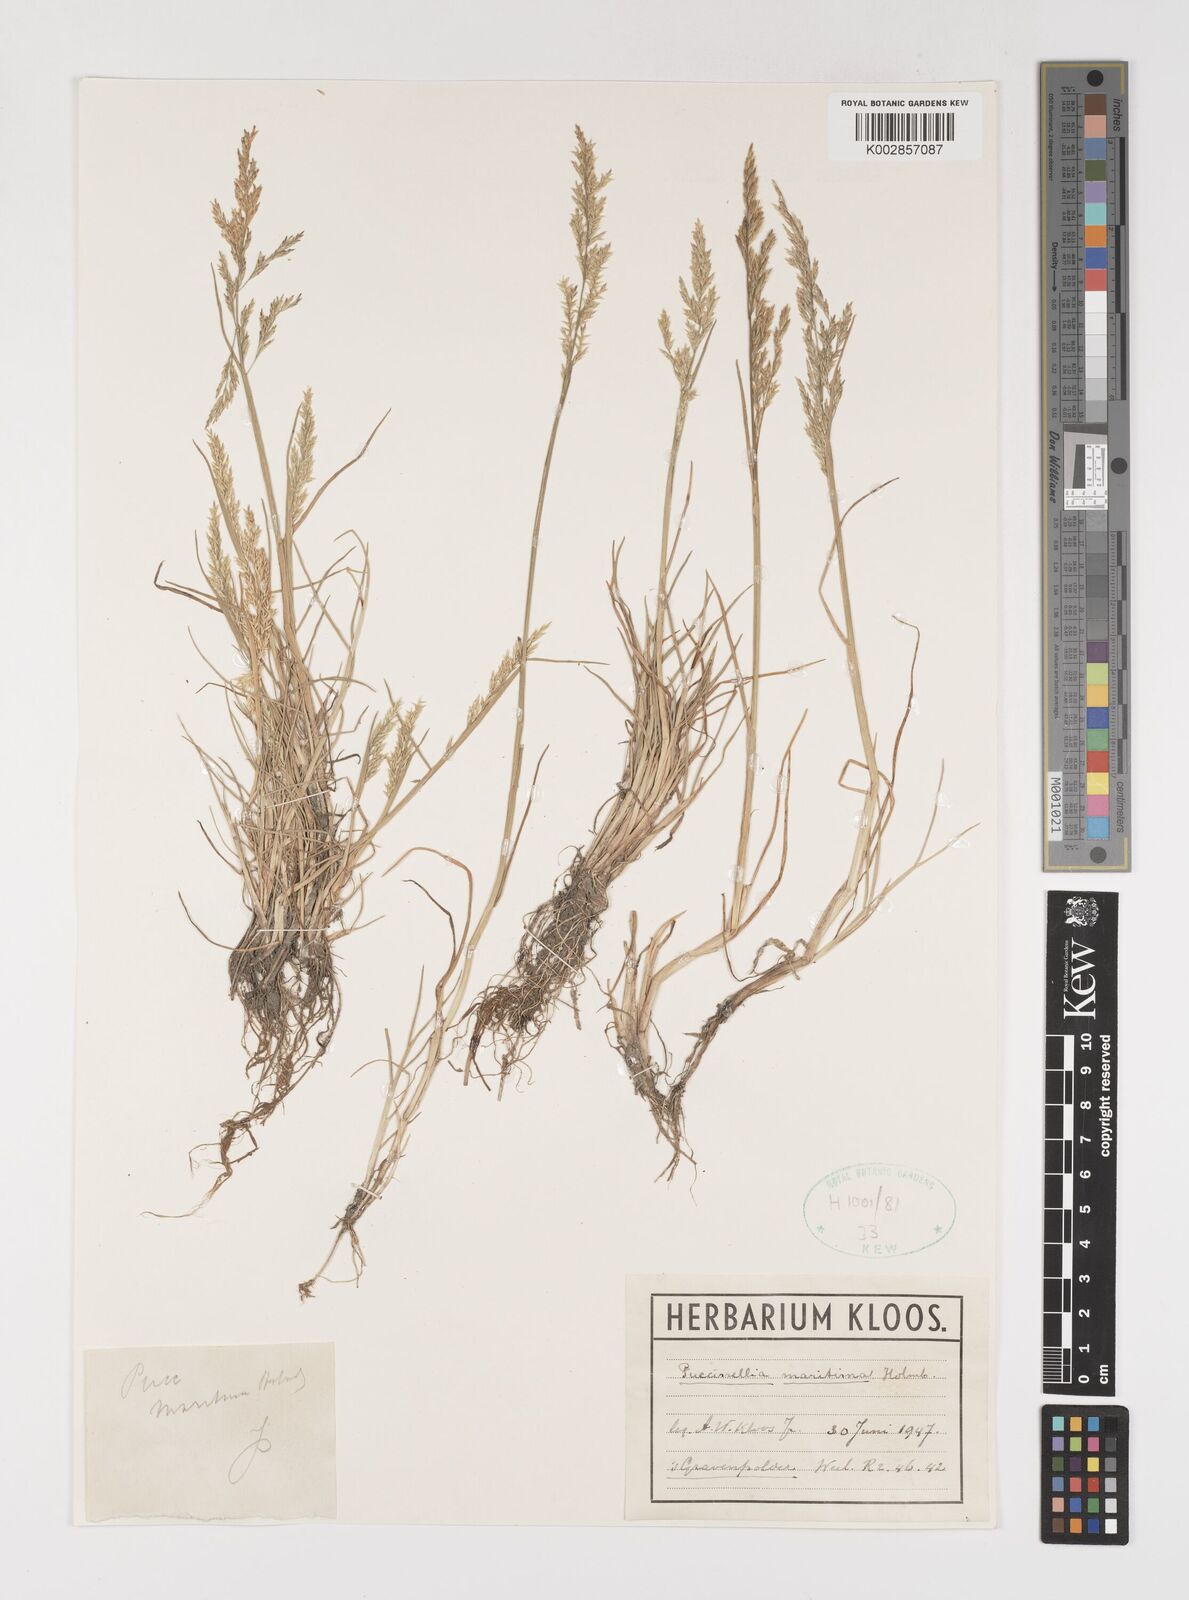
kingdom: Plantae
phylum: Tracheophyta
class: Liliopsida
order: Poales
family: Poaceae
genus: Puccinellia
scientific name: Puccinellia maritima
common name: Common saltmarsh grass
